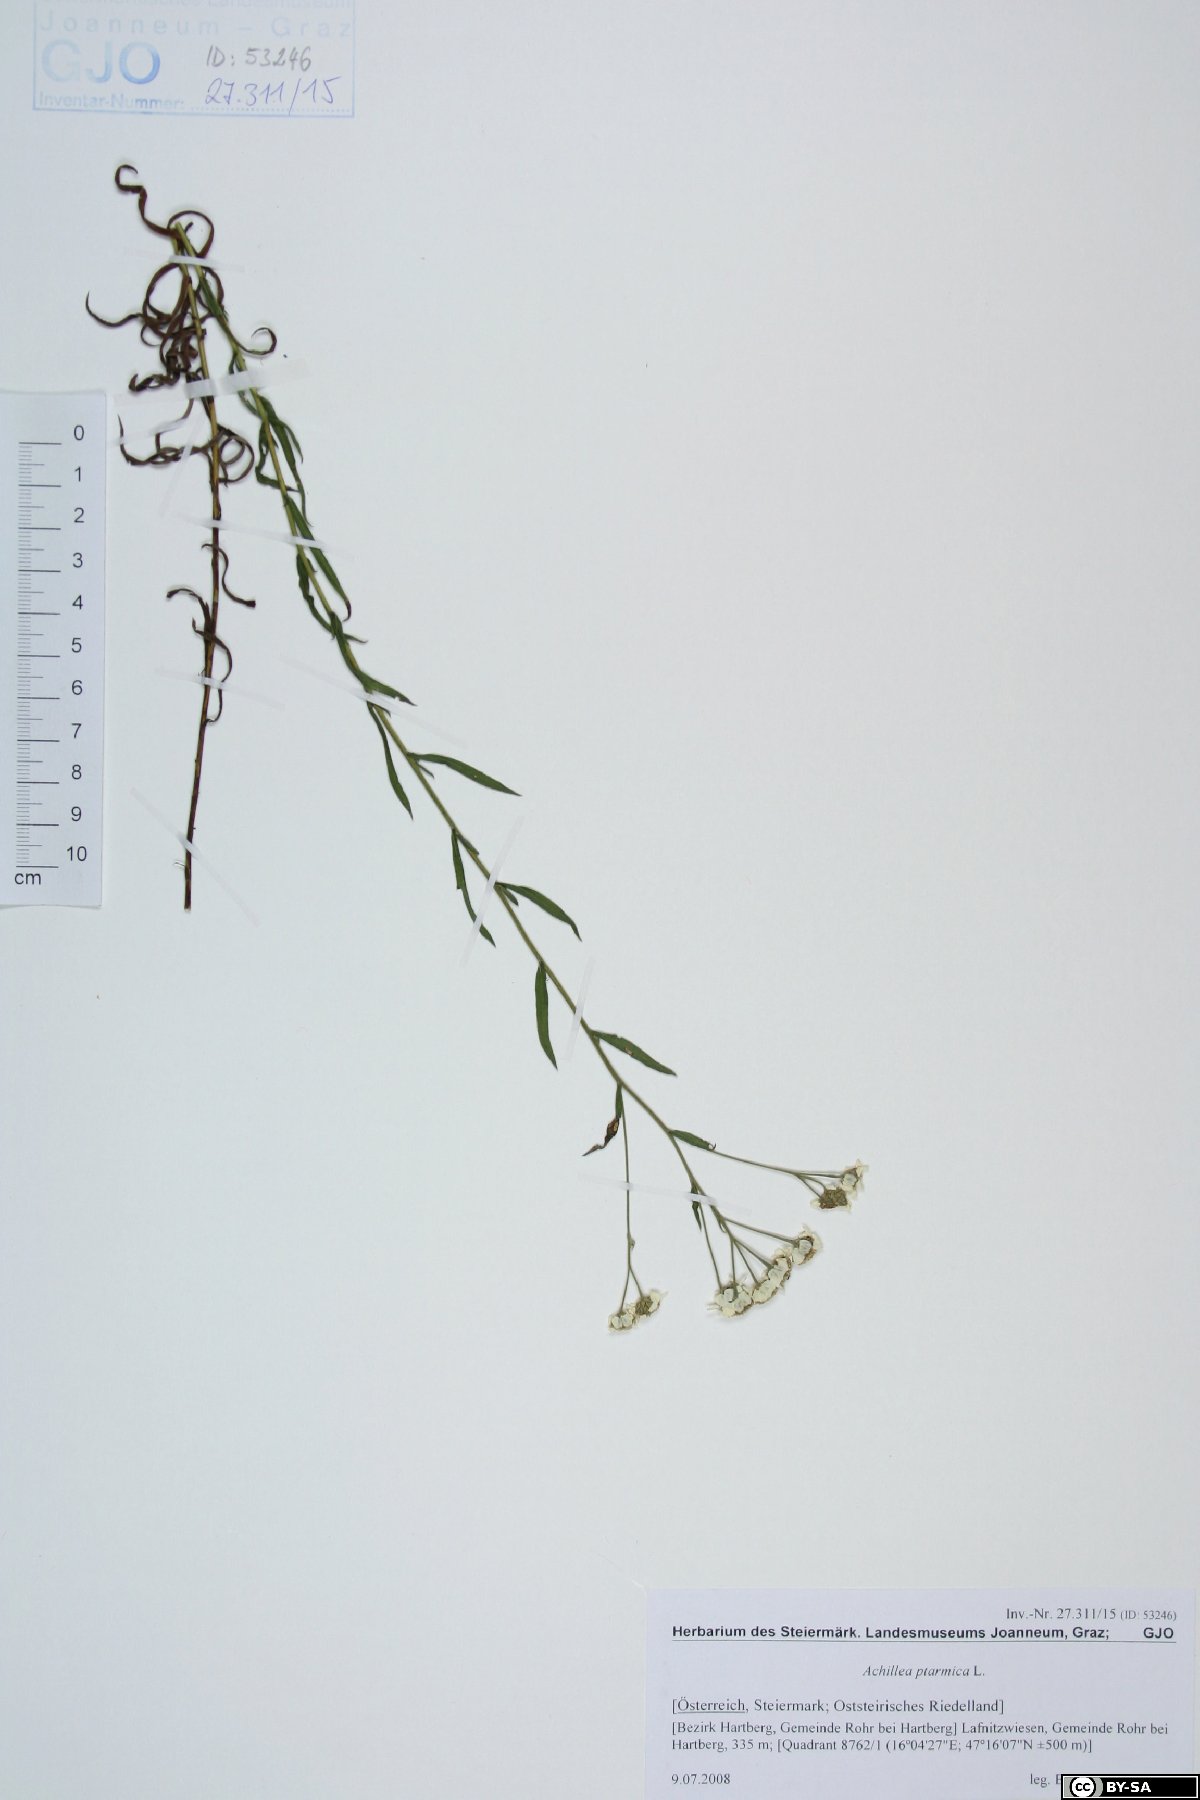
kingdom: Plantae
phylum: Tracheophyta
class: Magnoliopsida
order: Asterales
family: Asteraceae
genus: Achillea
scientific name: Achillea ptarmica
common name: Sneezeweed
